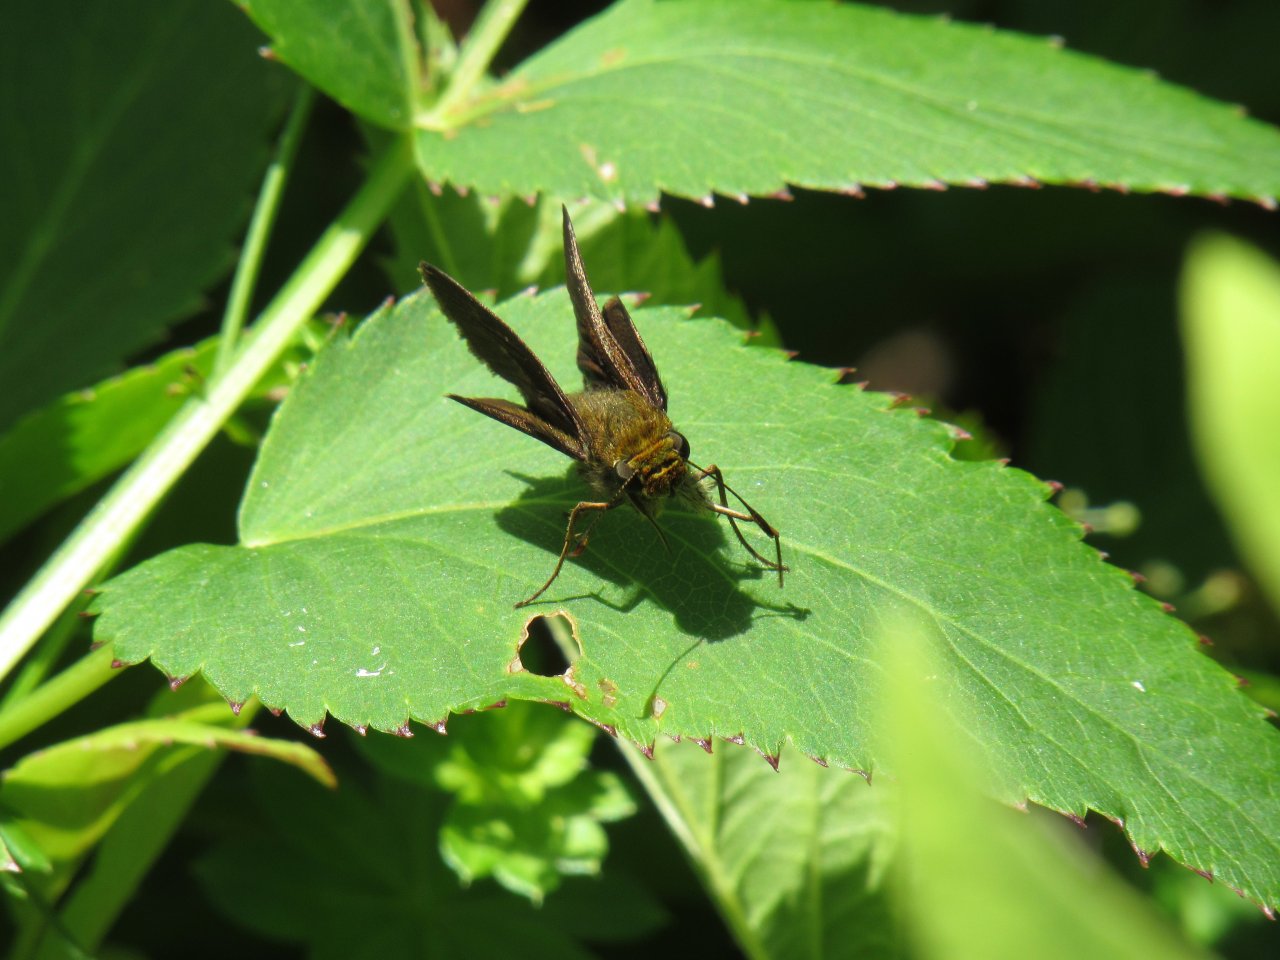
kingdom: Animalia
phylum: Arthropoda
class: Insecta
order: Lepidoptera
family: Hesperiidae
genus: Euphyes
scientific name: Euphyes
